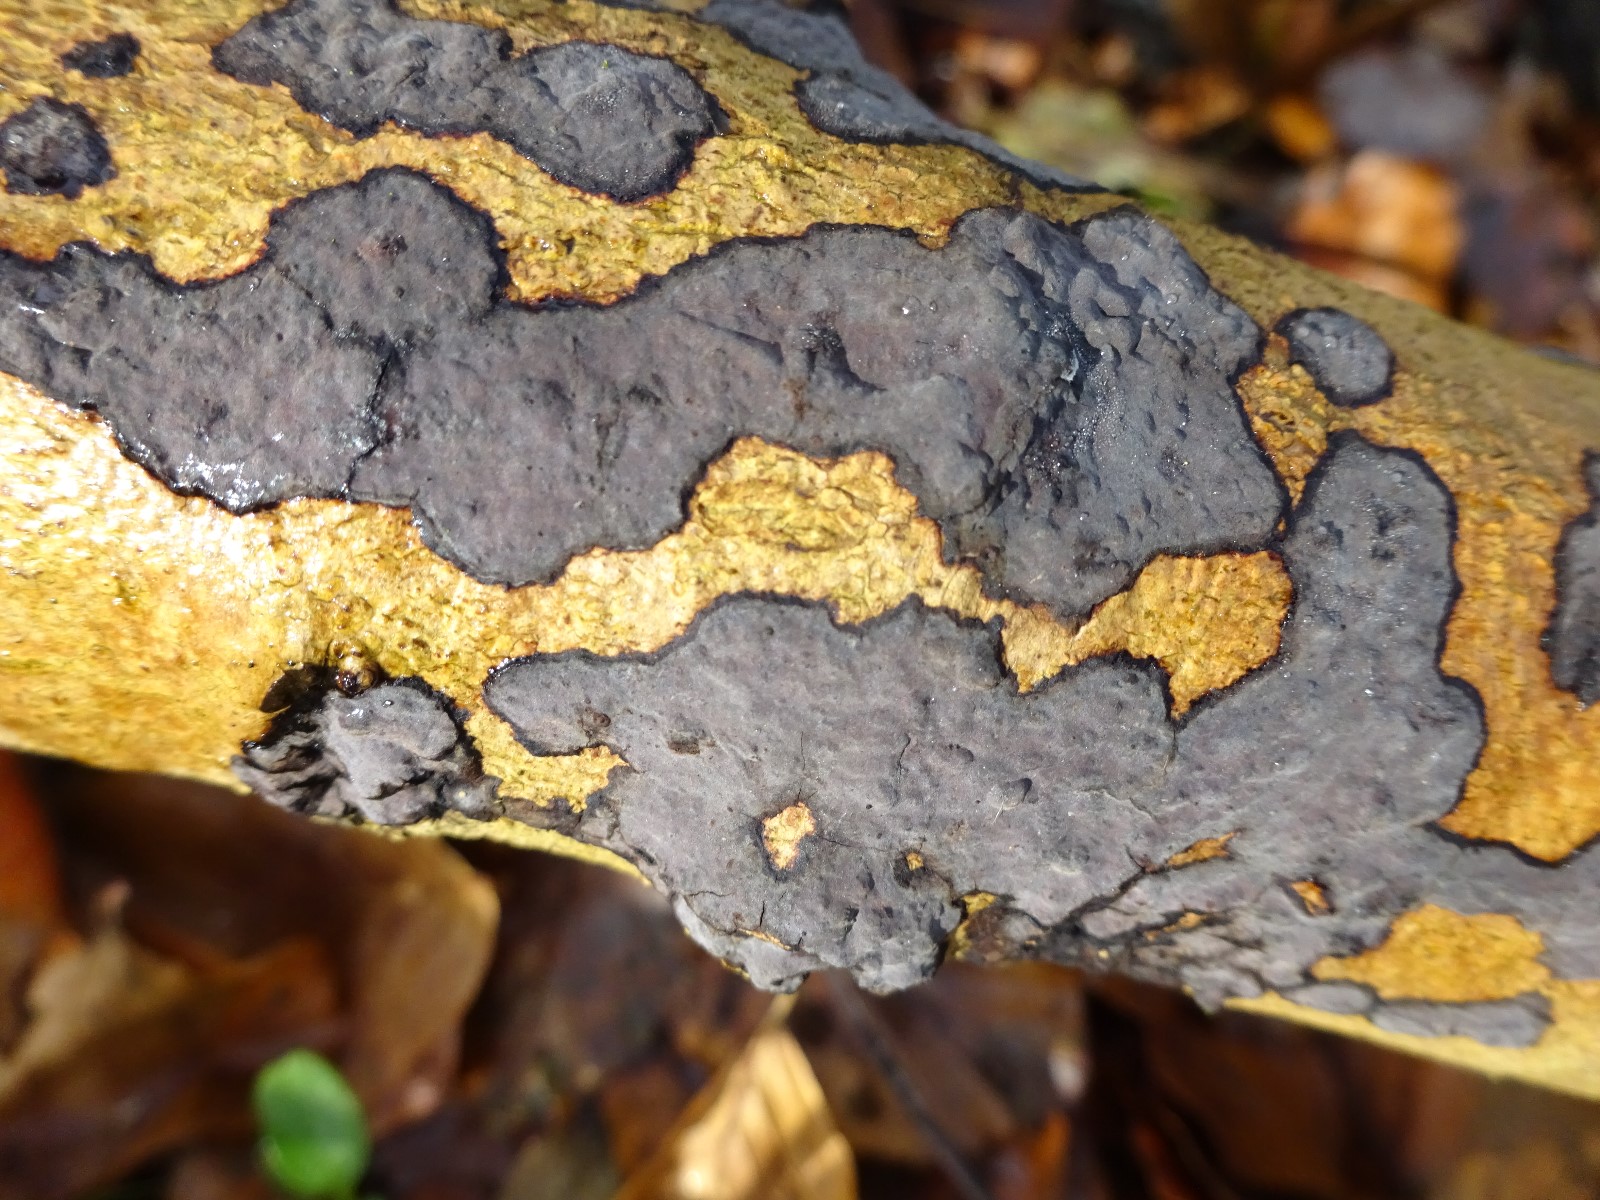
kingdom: Fungi
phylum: Basidiomycota
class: Agaricomycetes
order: Russulales
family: Peniophoraceae
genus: Peniophora
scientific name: Peniophora limitata
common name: mørkrandet voksskind
